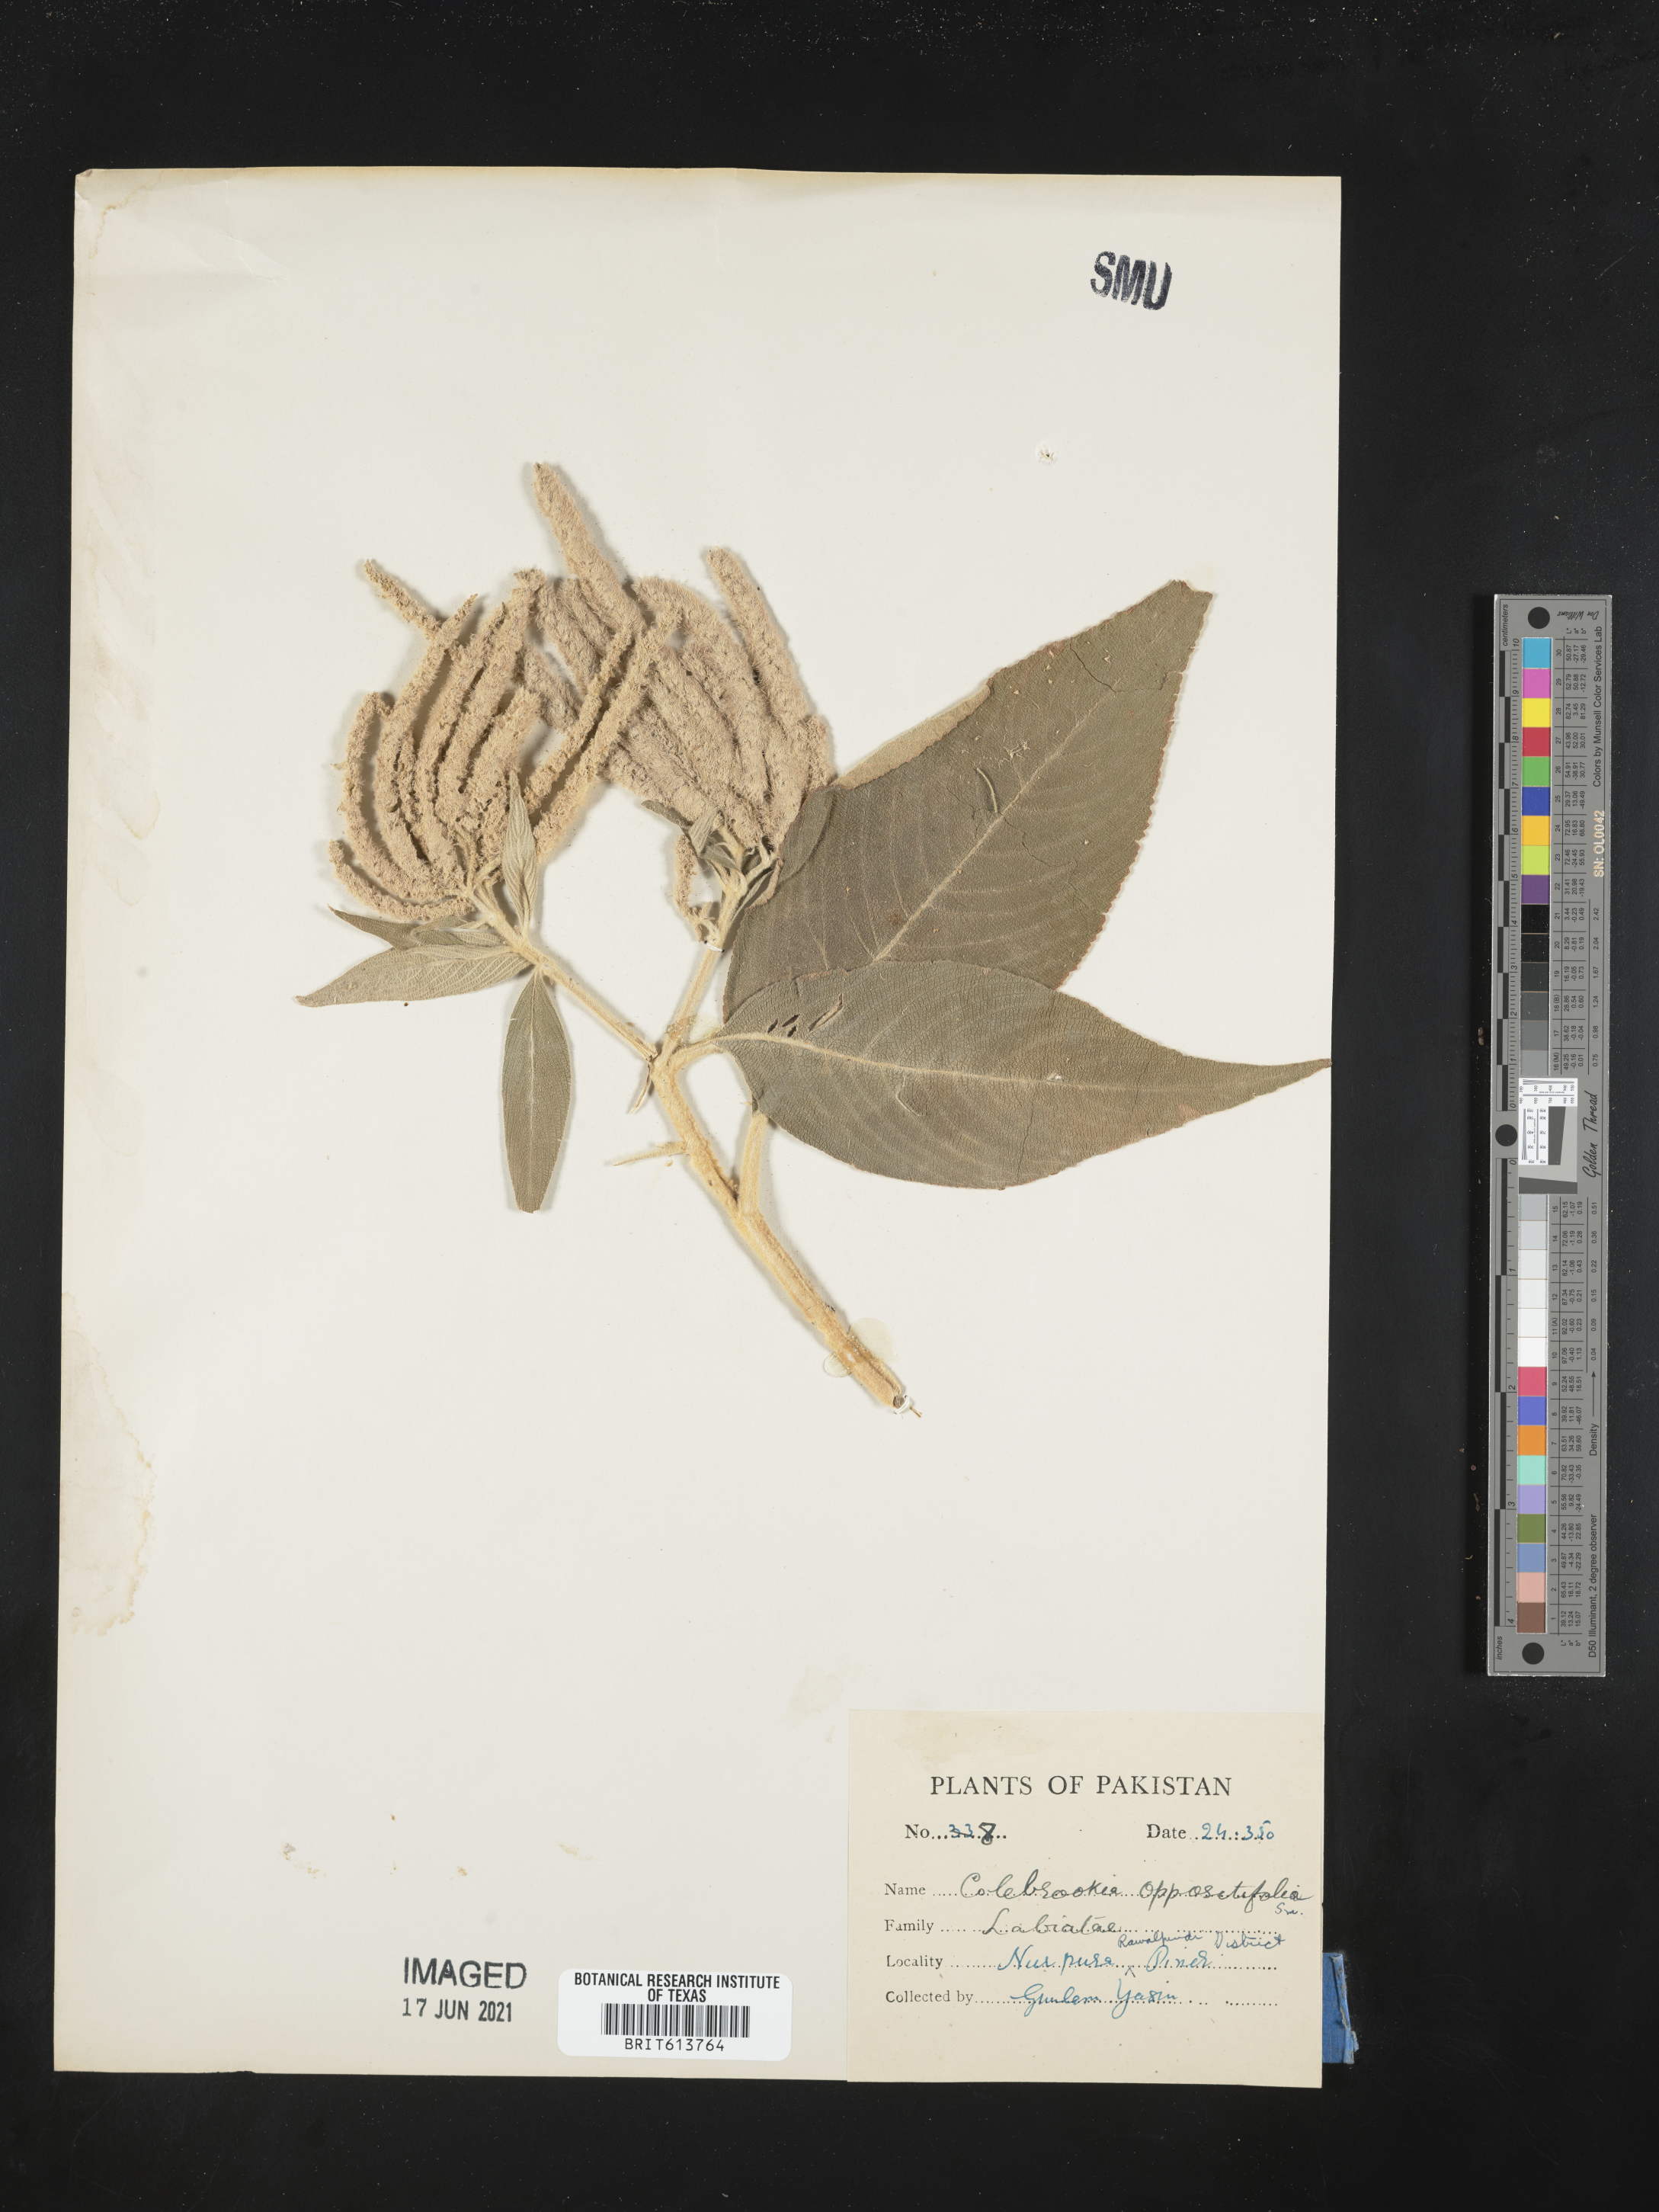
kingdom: Plantae
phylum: Tracheophyta
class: Magnoliopsida
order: Lamiales
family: Lamiaceae
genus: Colebrookea
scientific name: Colebrookea oppositifolia
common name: Indian squirrel tail
